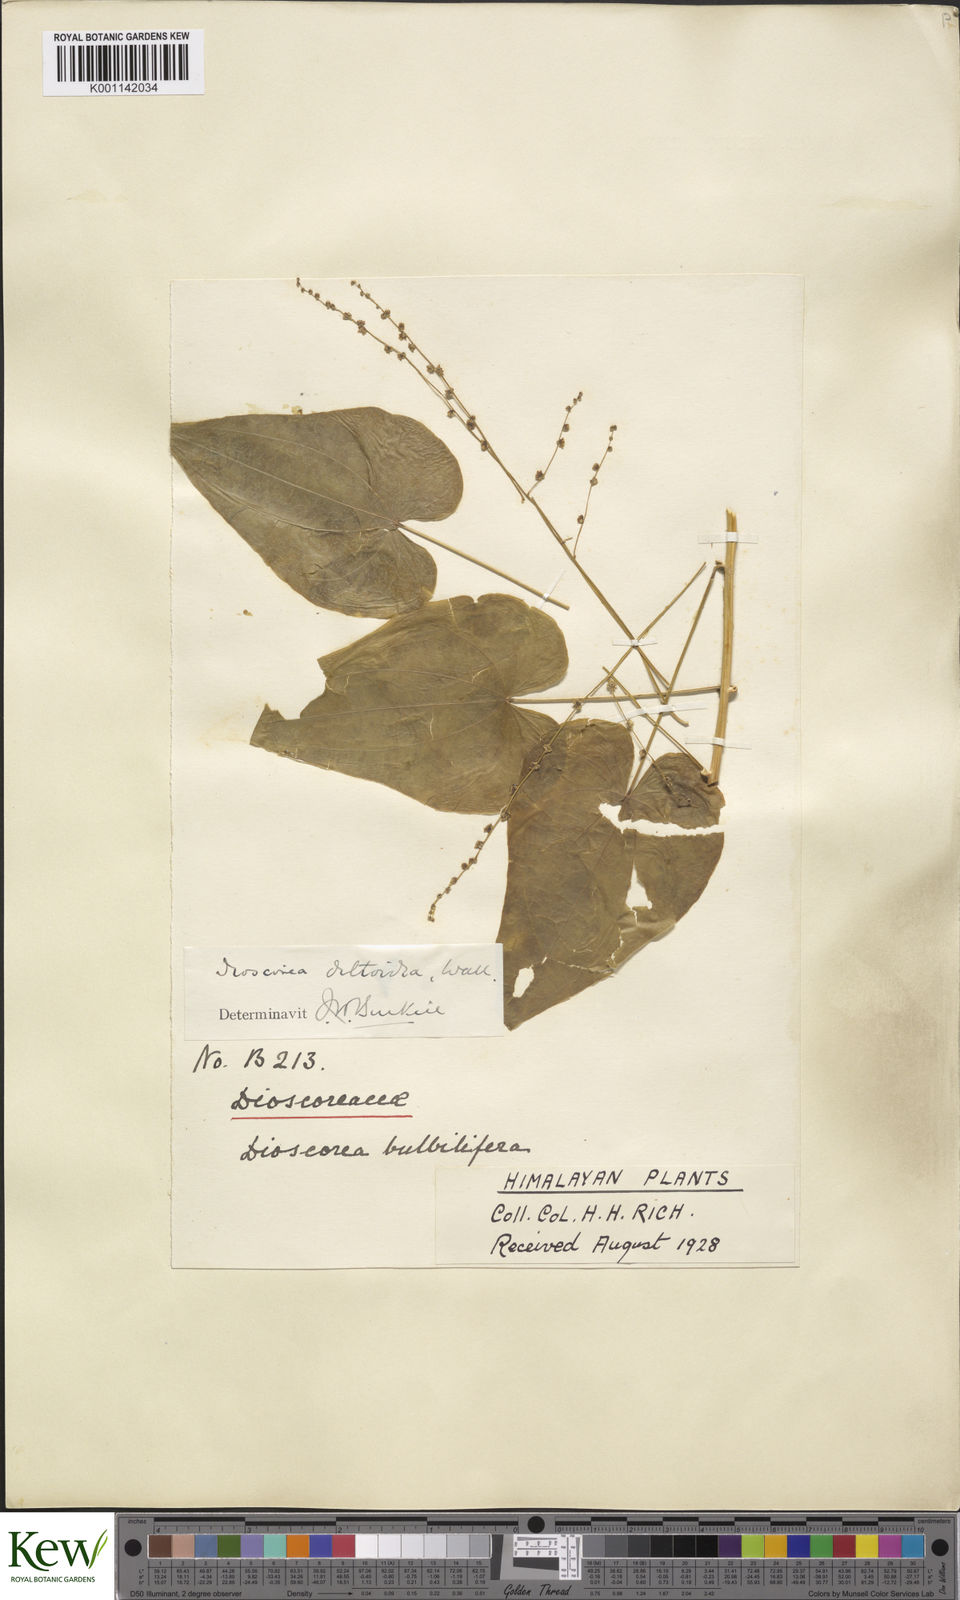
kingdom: Plantae
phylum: Tracheophyta
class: Liliopsida
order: Dioscoreales
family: Dioscoreaceae
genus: Dioscorea
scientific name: Dioscorea deltoidea
